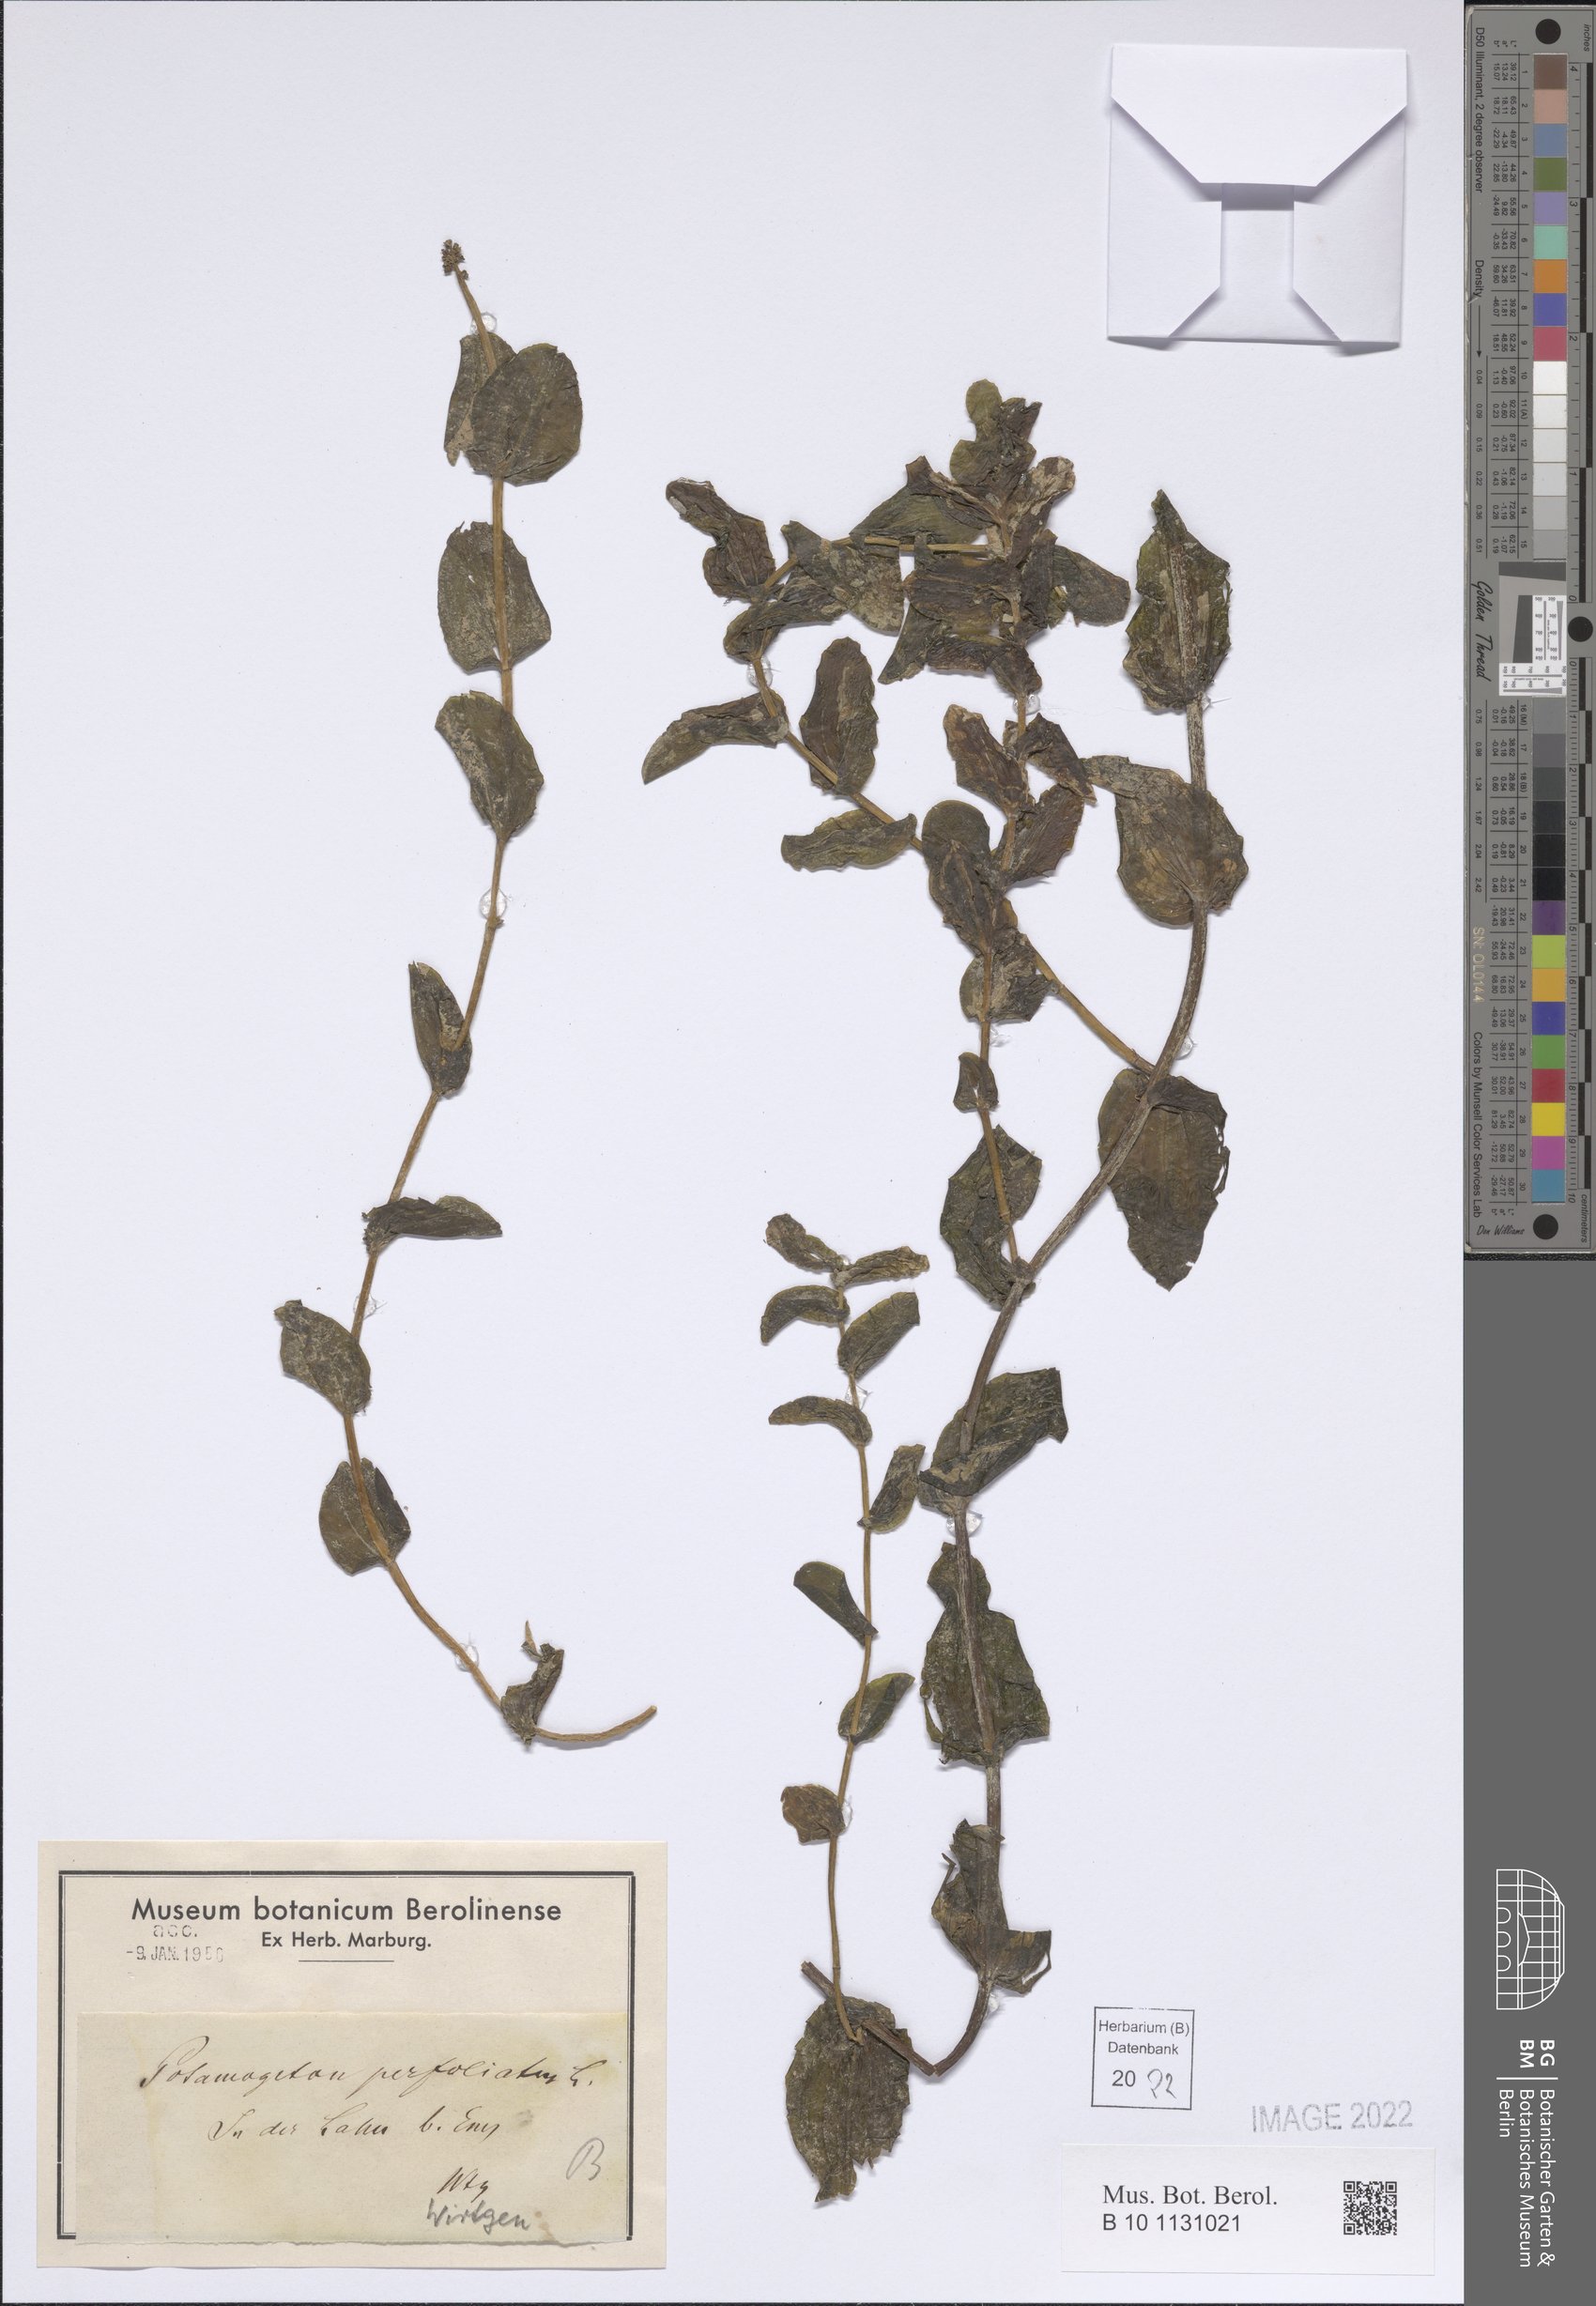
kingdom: Plantae
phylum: Tracheophyta
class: Liliopsida
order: Alismatales
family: Potamogetonaceae
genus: Potamogeton
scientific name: Potamogeton perfoliatus
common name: Perfoliate pondweed
